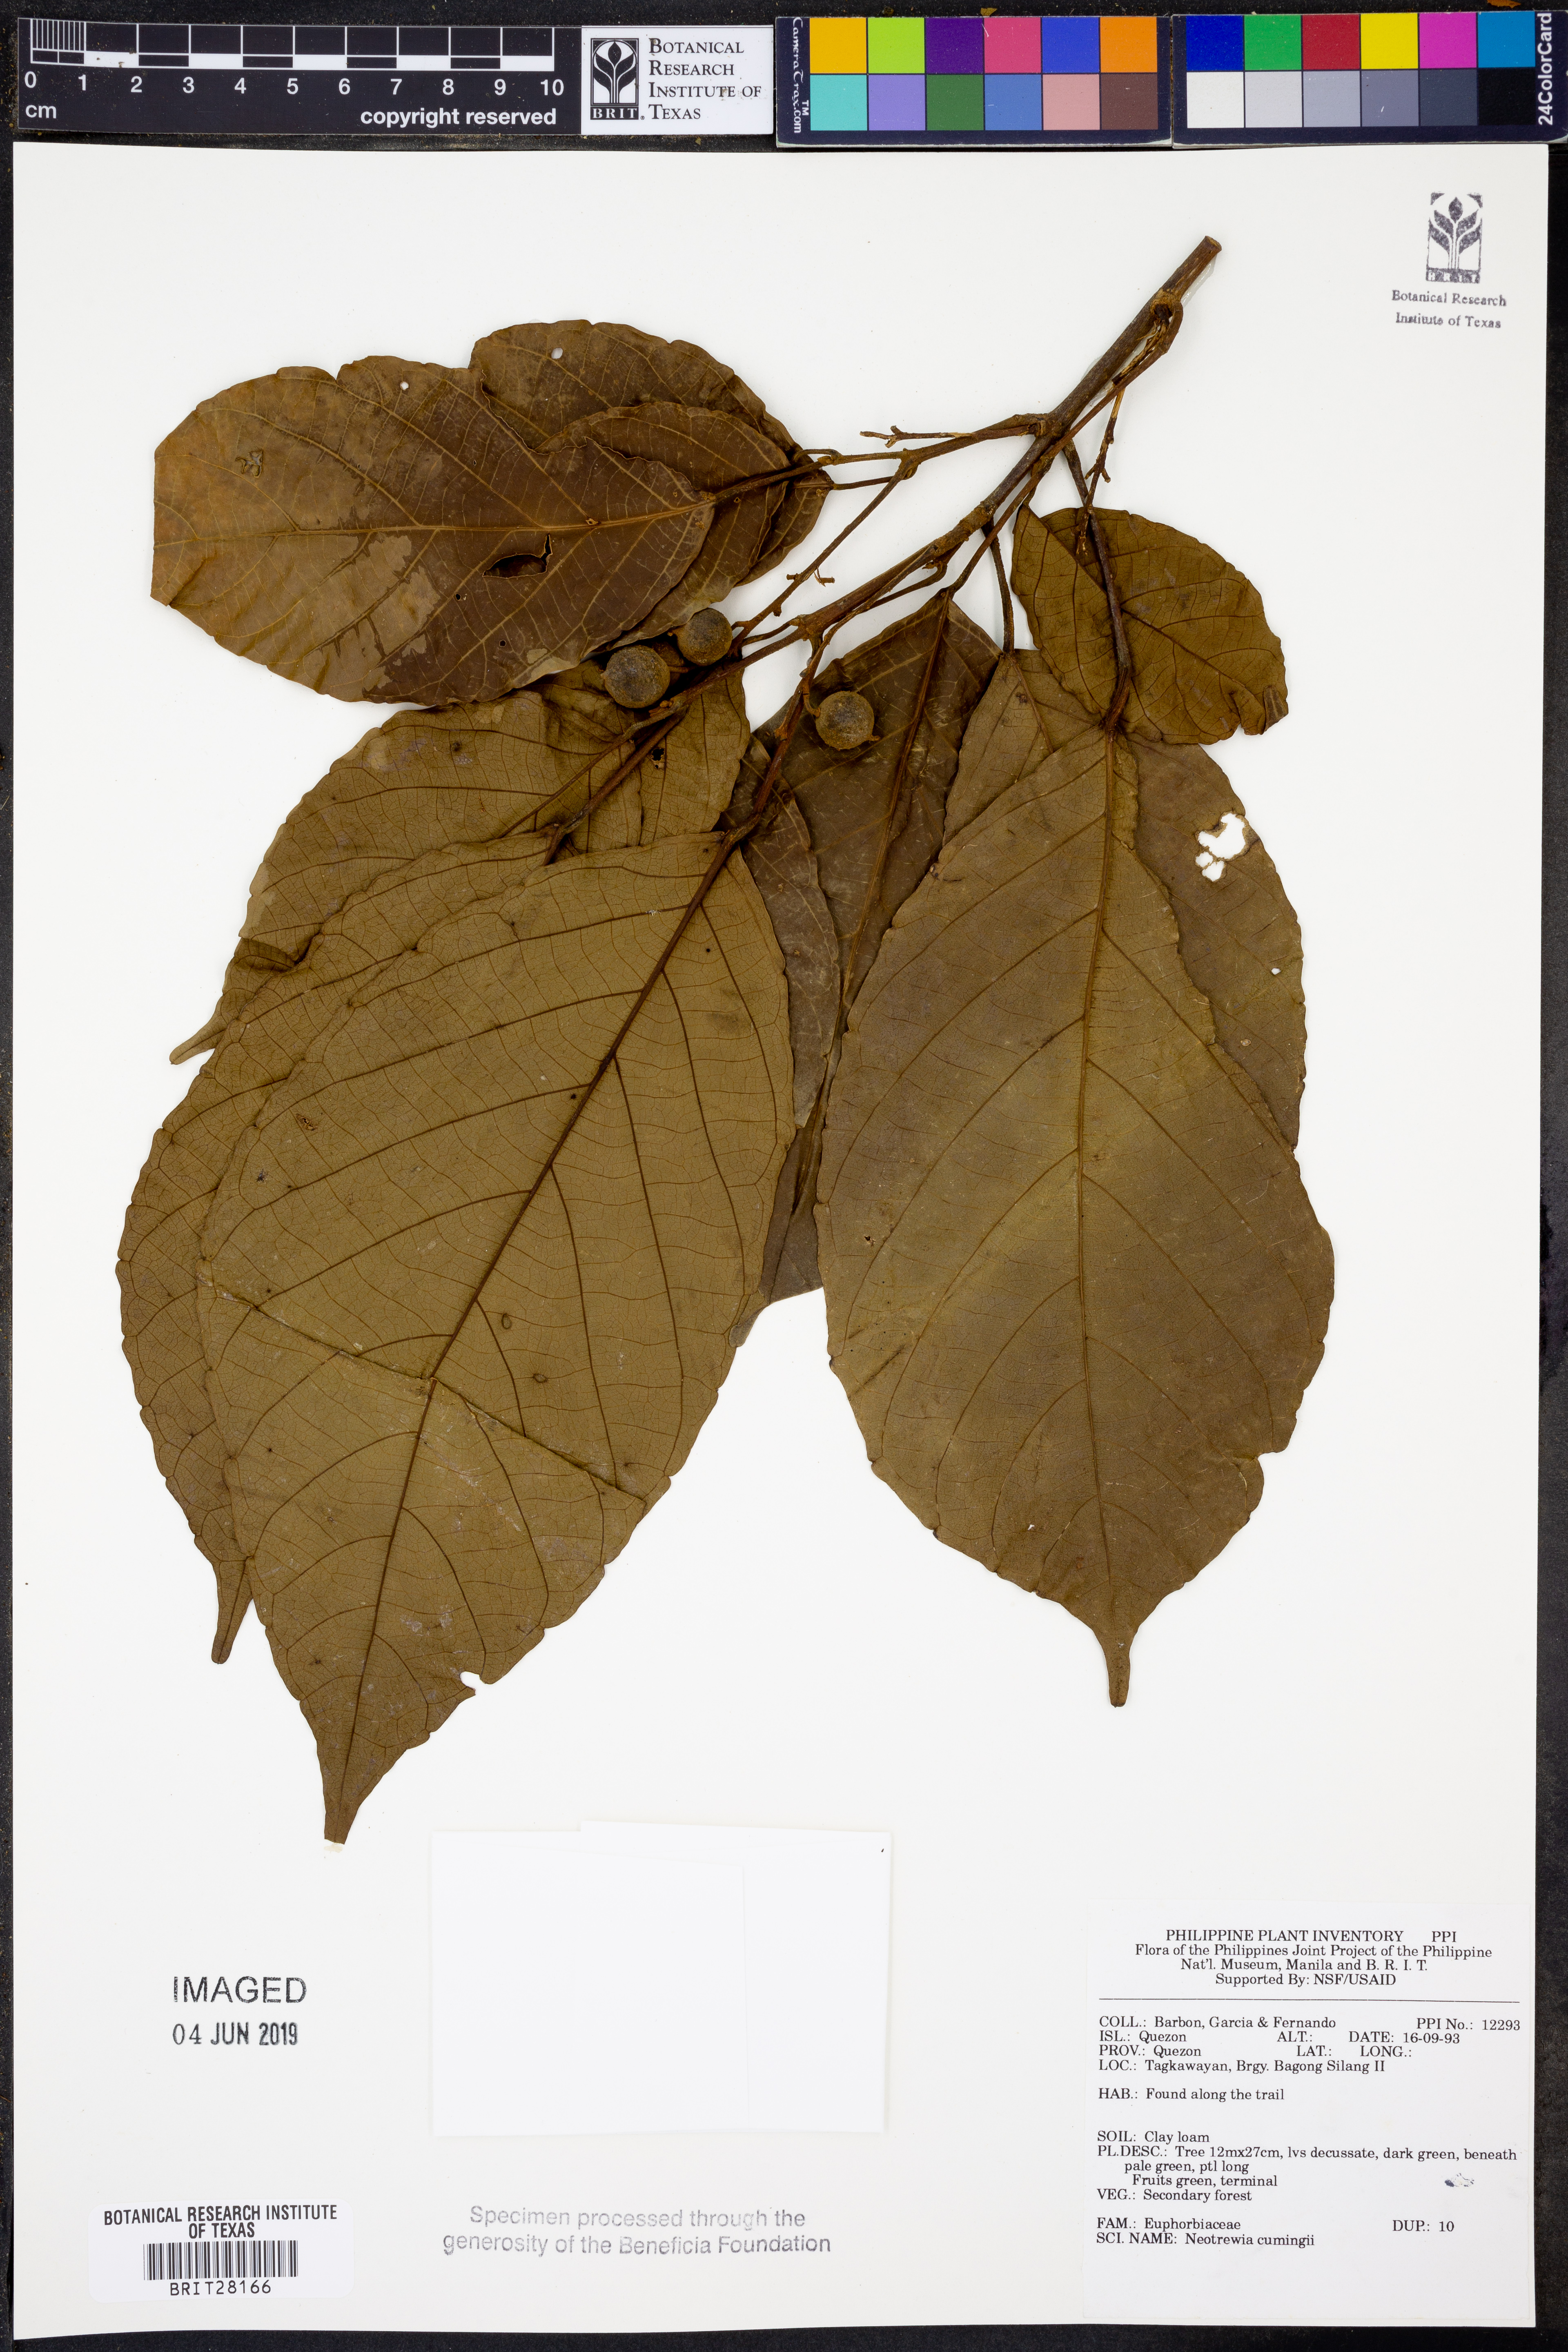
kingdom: Plantae
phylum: Tracheophyta
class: Magnoliopsida
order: Malpighiales
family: Euphorbiaceae
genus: Mallotus
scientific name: Mallotus cumingii
